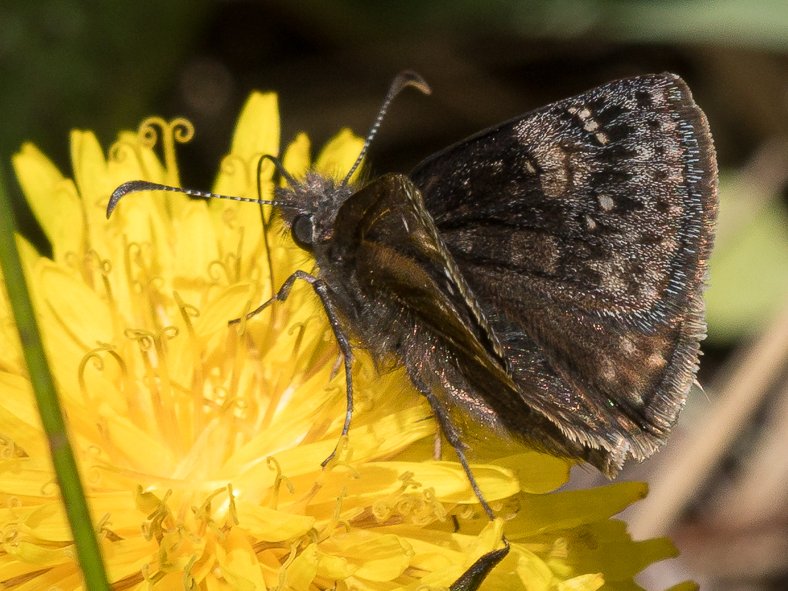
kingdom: Animalia
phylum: Arthropoda
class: Insecta
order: Lepidoptera
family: Hesperiidae
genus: Gesta
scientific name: Gesta
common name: Persius Duskywing
